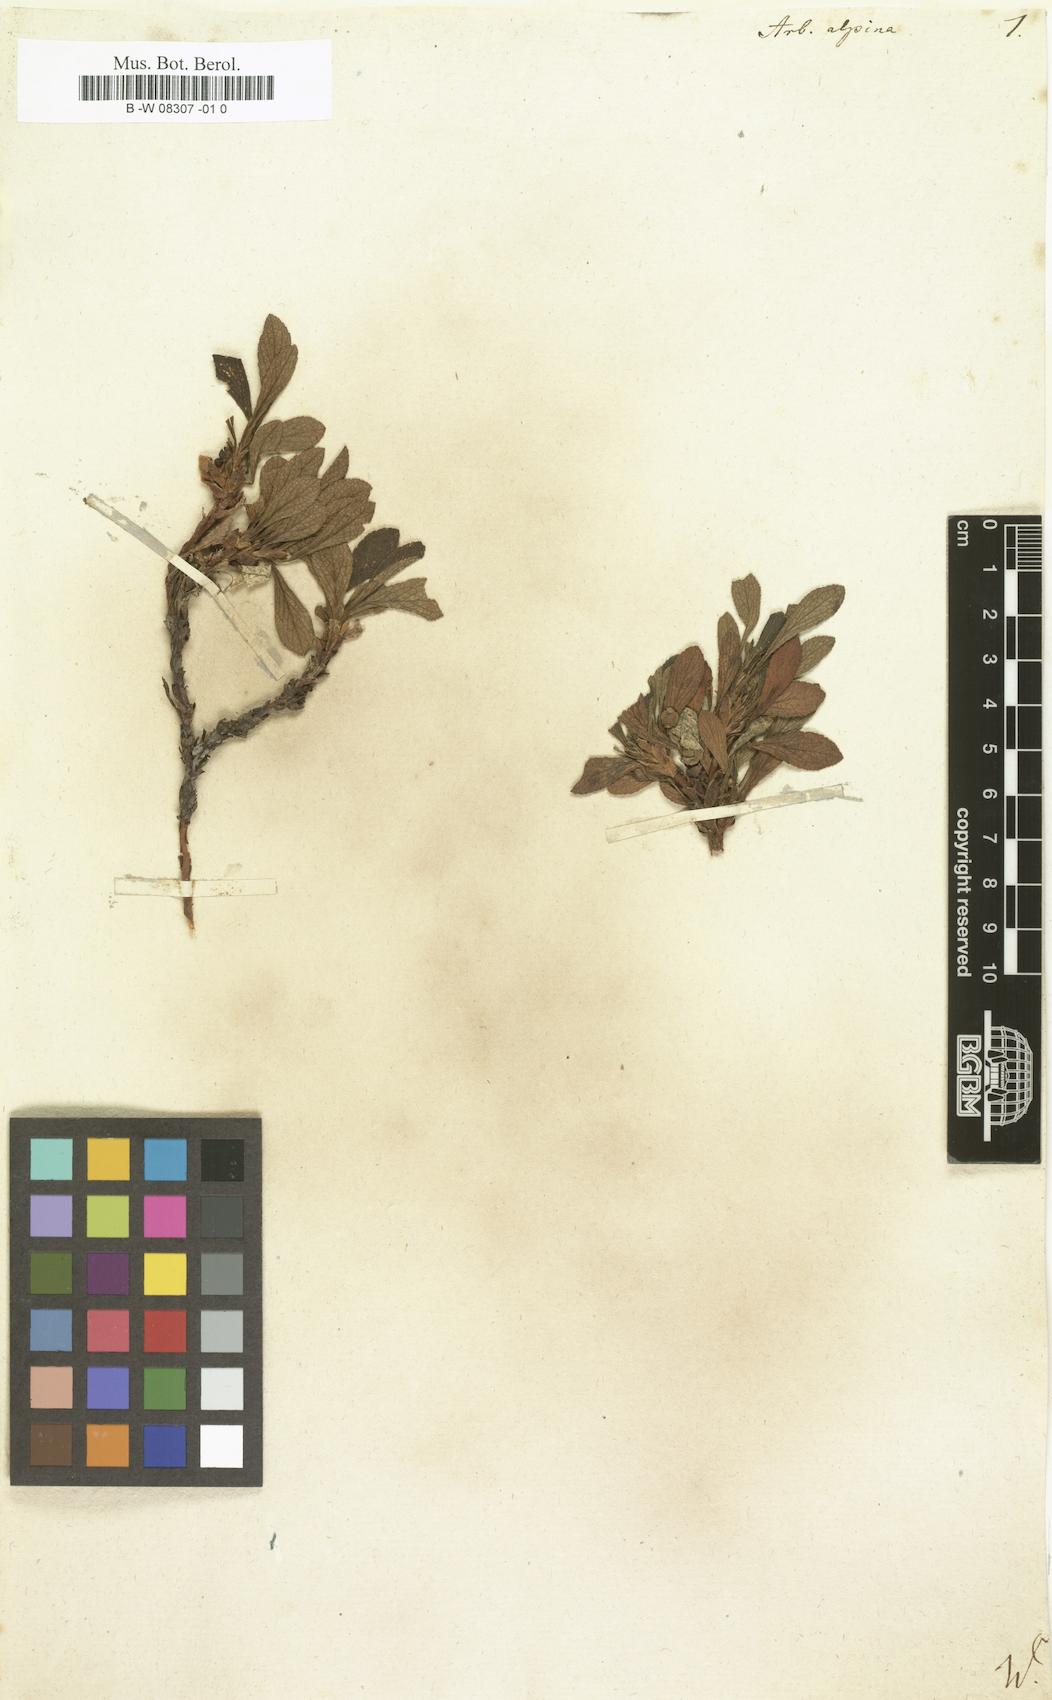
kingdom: Plantae
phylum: Tracheophyta
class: Magnoliopsida
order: Ericales
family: Ericaceae
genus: Arctostaphylos
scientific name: Arctostaphylos alpinus
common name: Alpine bearberry
